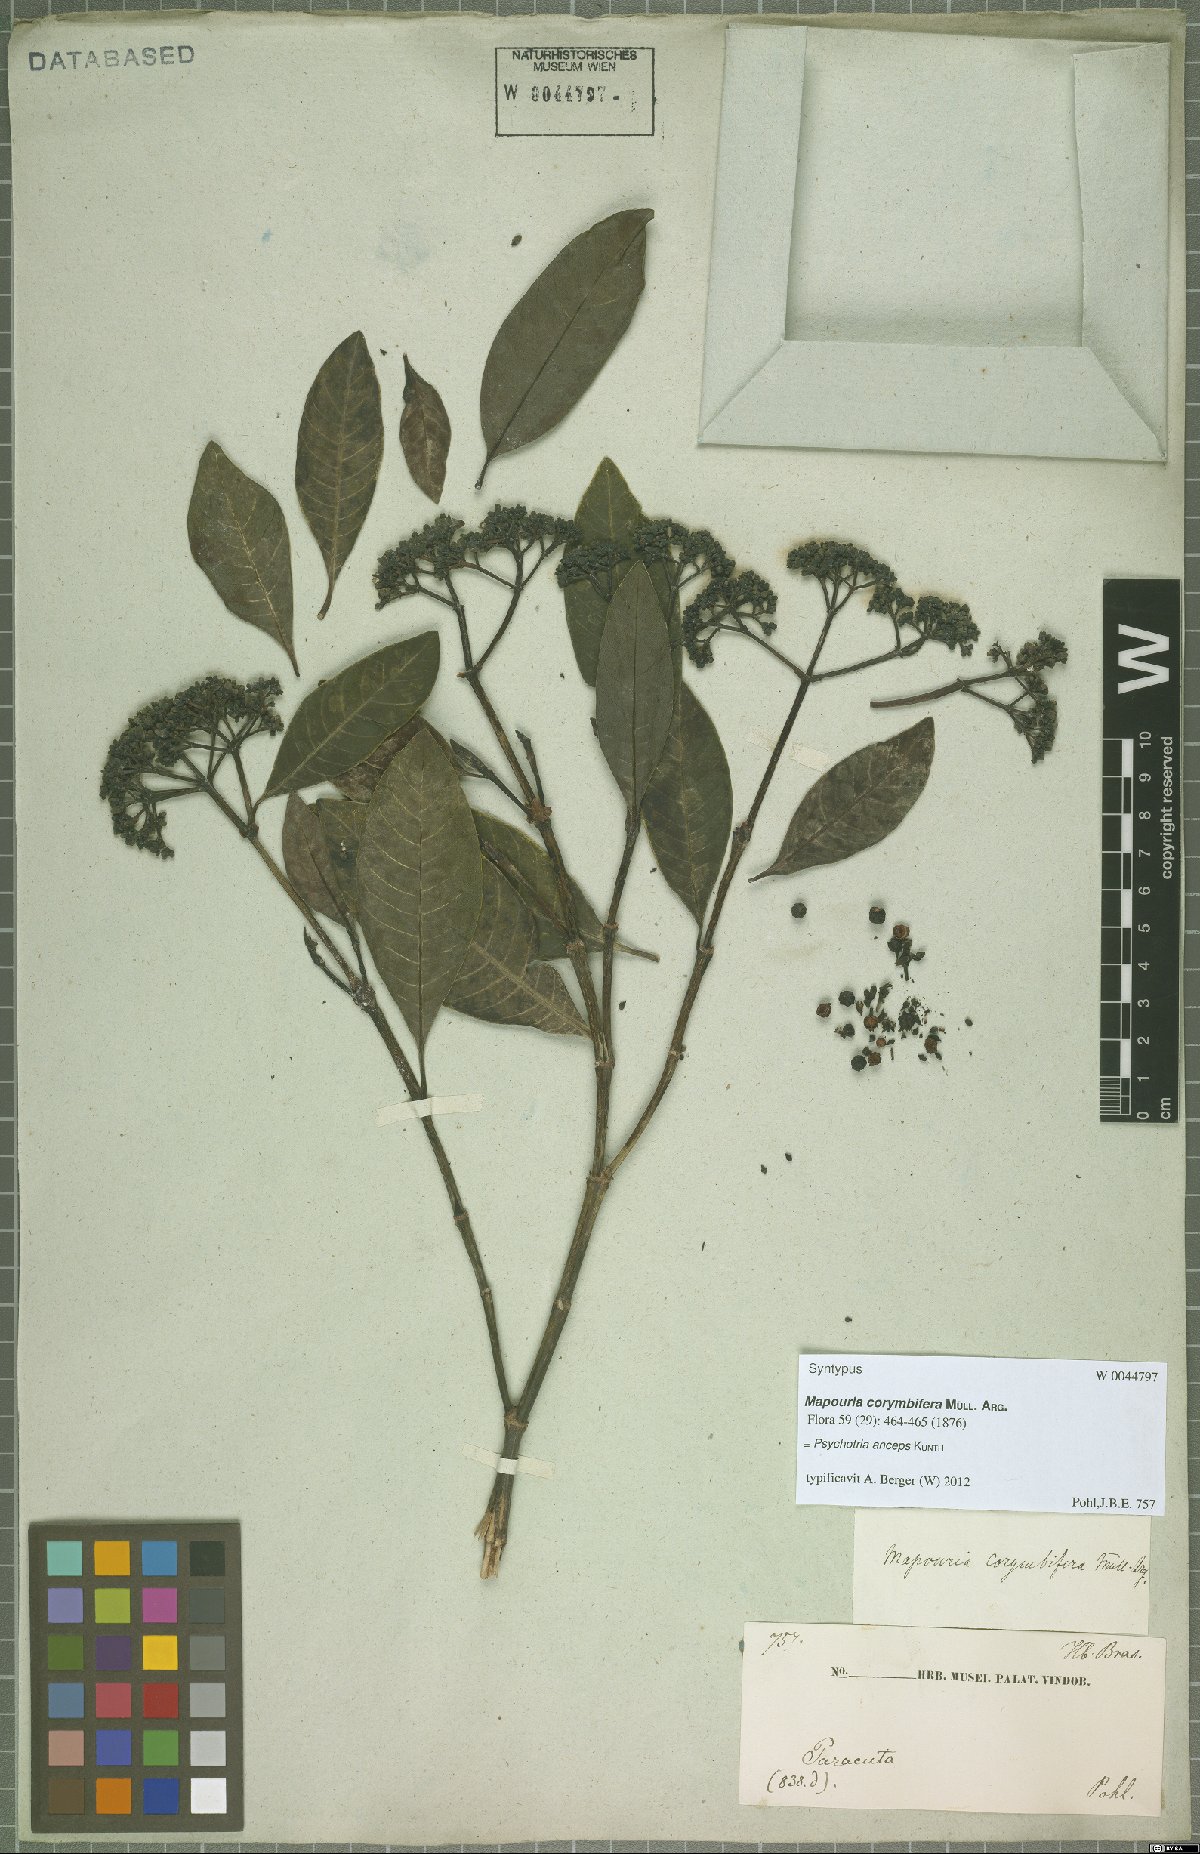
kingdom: Plantae
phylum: Tracheophyta
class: Magnoliopsida
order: Gentianales
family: Rubiaceae
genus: Psychotria
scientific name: Psychotria anceps
